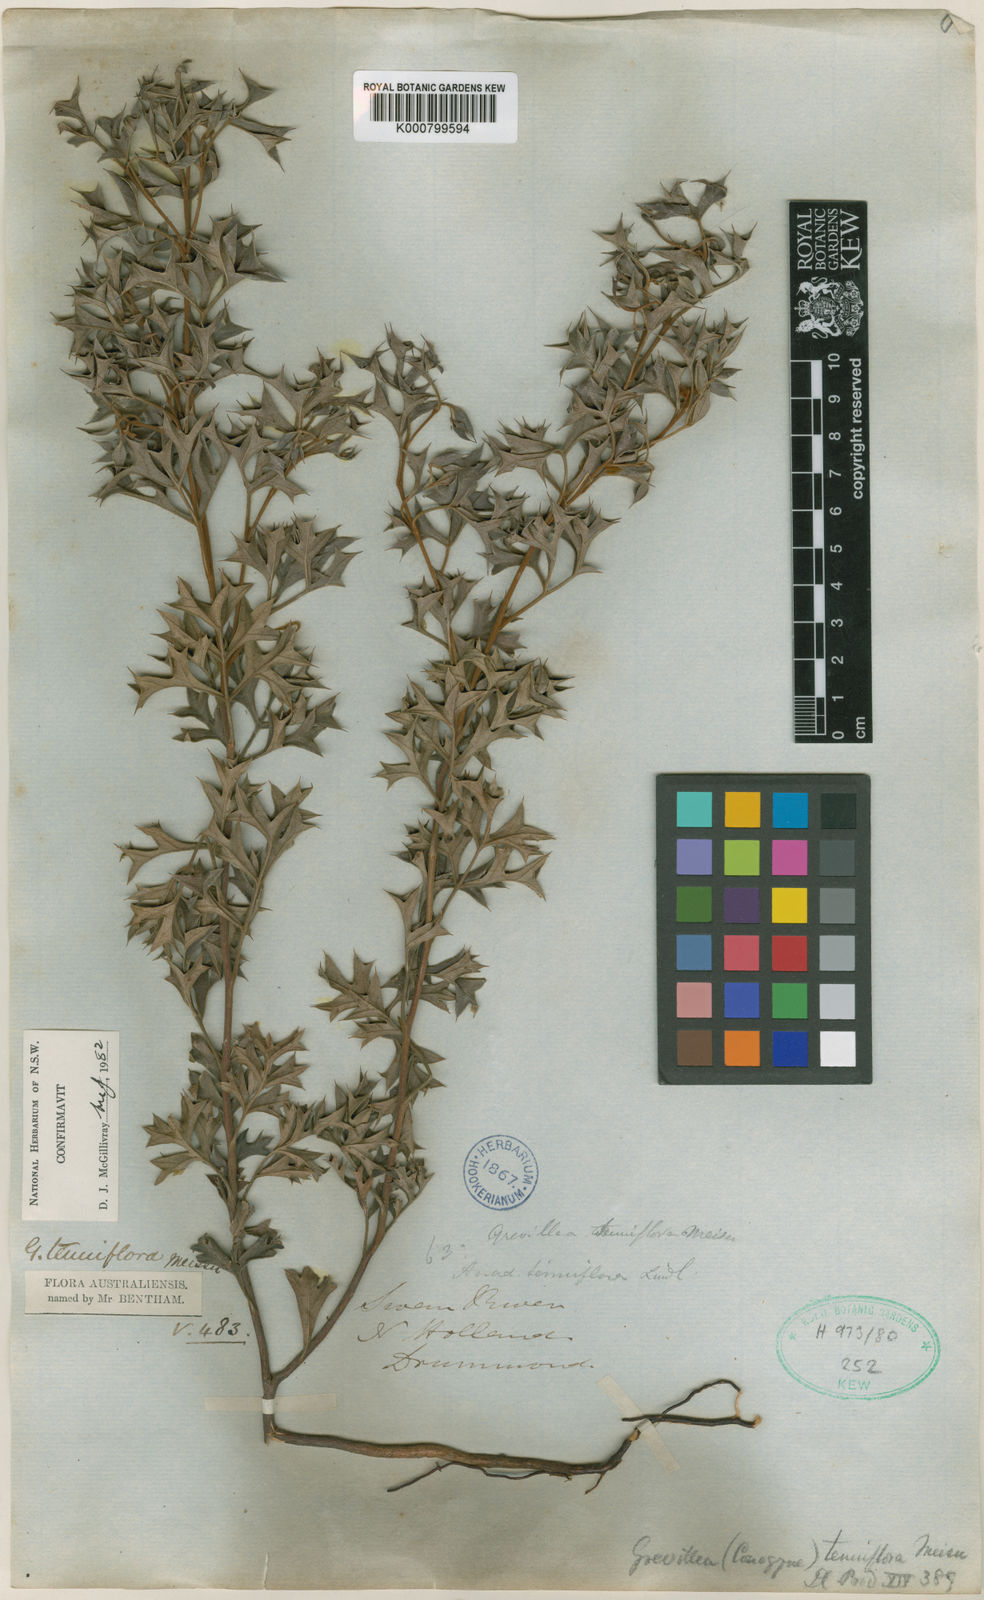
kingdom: Plantae
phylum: Tracheophyta
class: Magnoliopsida
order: Proteales
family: Proteaceae
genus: Grevillea
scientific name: Grevillea tenuiflora
